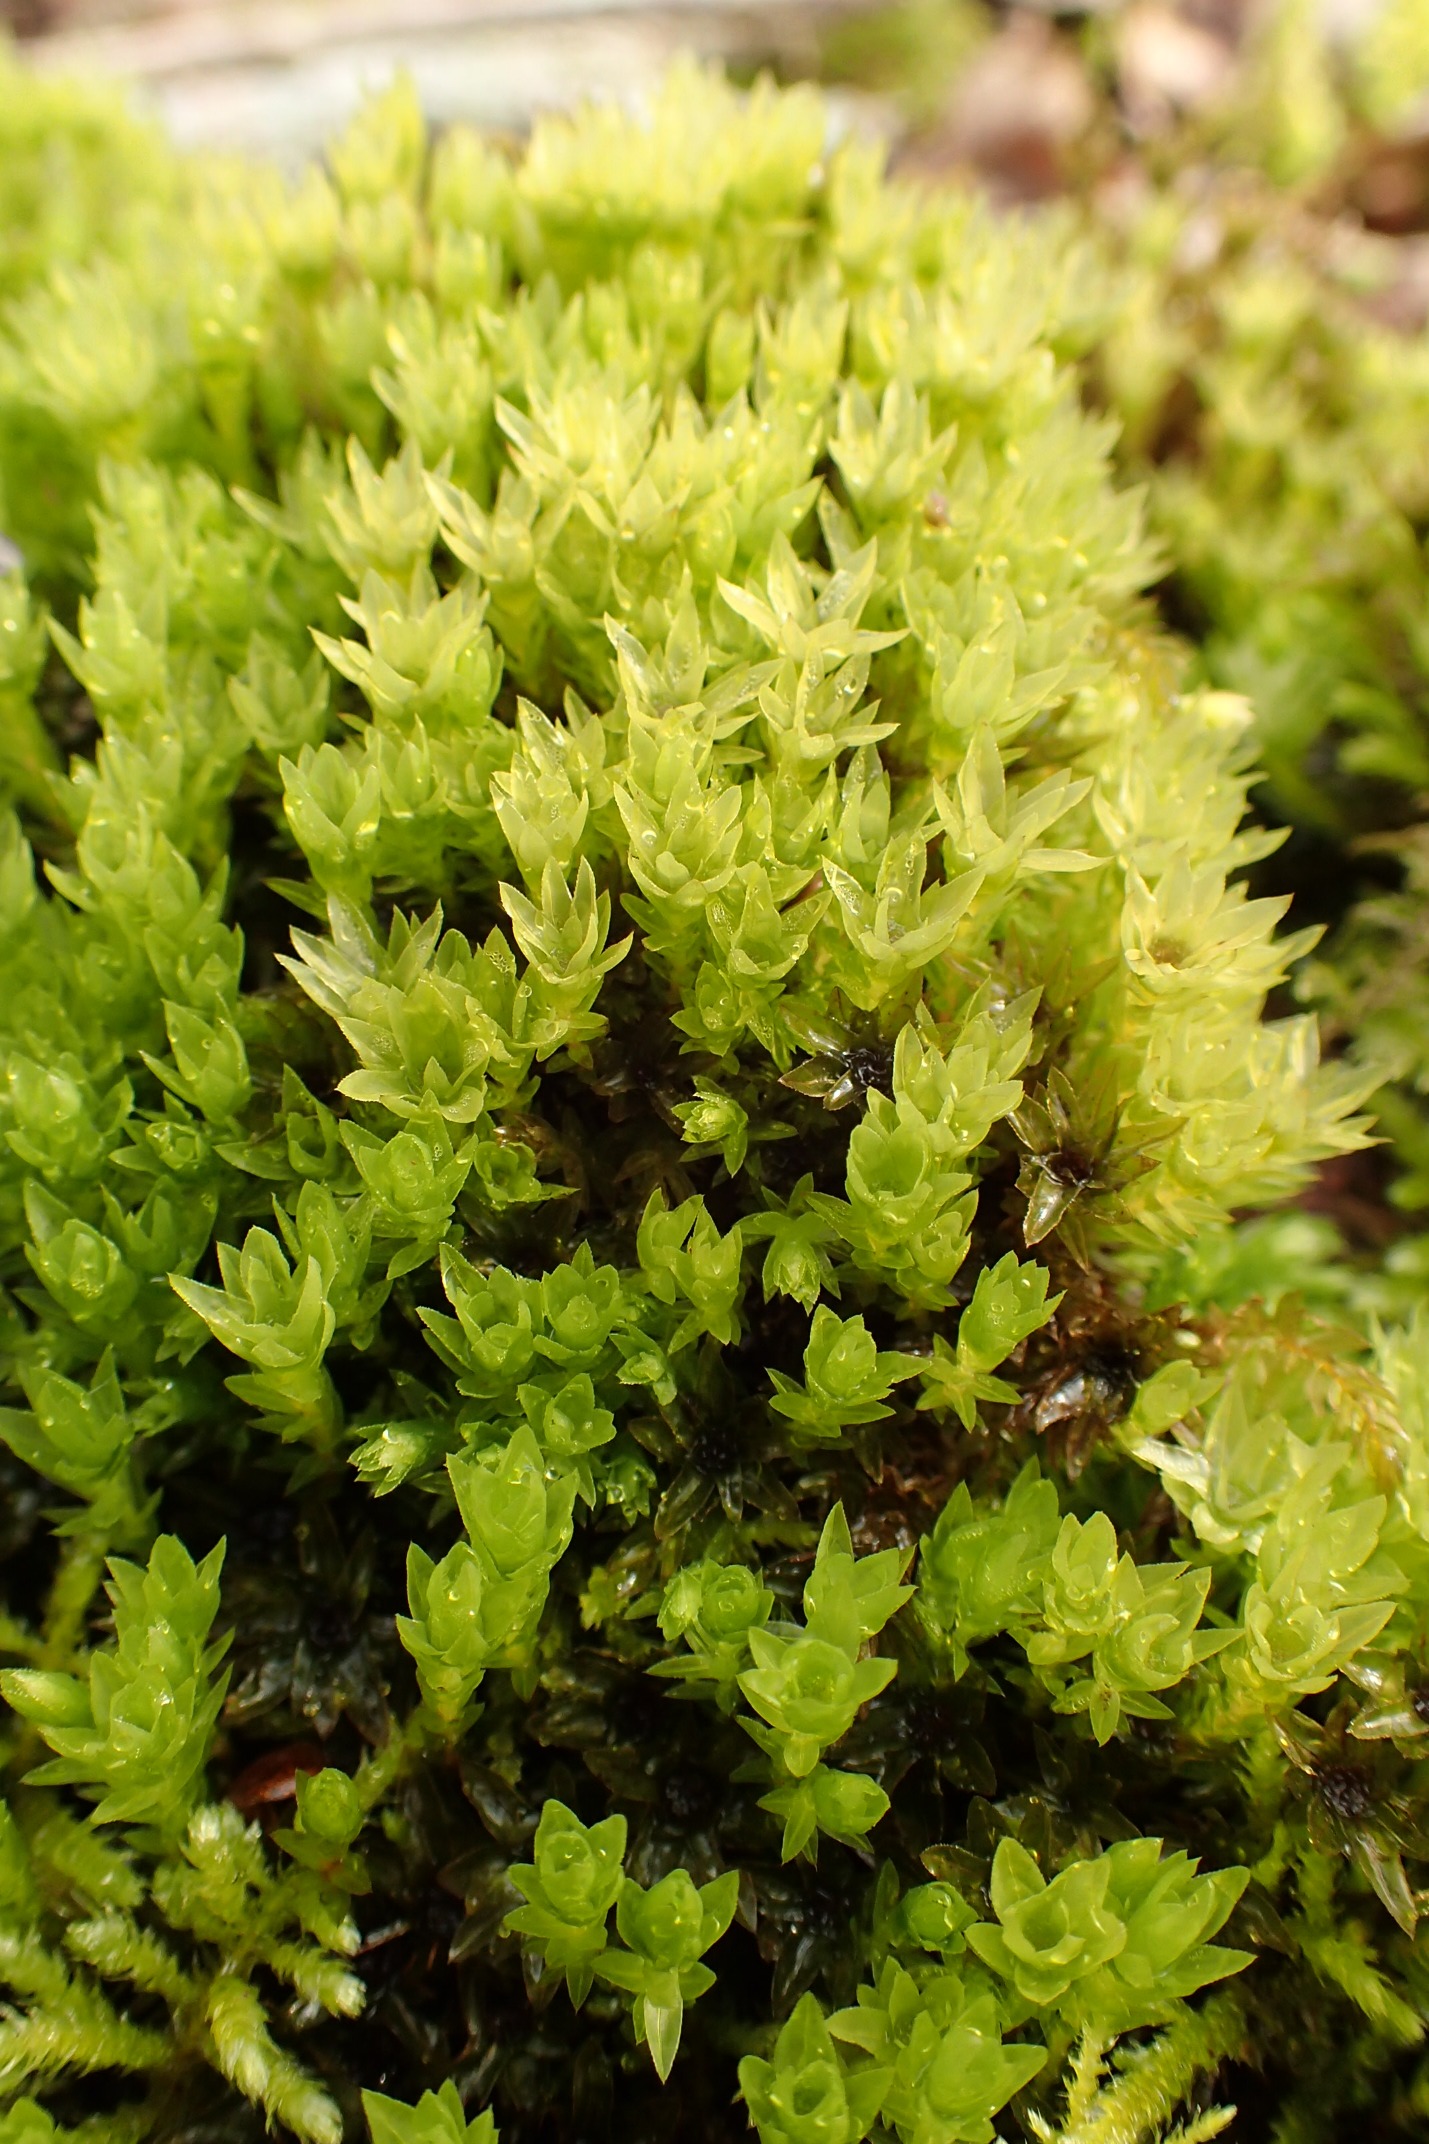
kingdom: Plantae
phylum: Bryophyta
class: Bryopsida
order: Bryales
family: Mniaceae
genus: Mnium
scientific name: Mnium hornum
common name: Brunfiltet stjernemos
